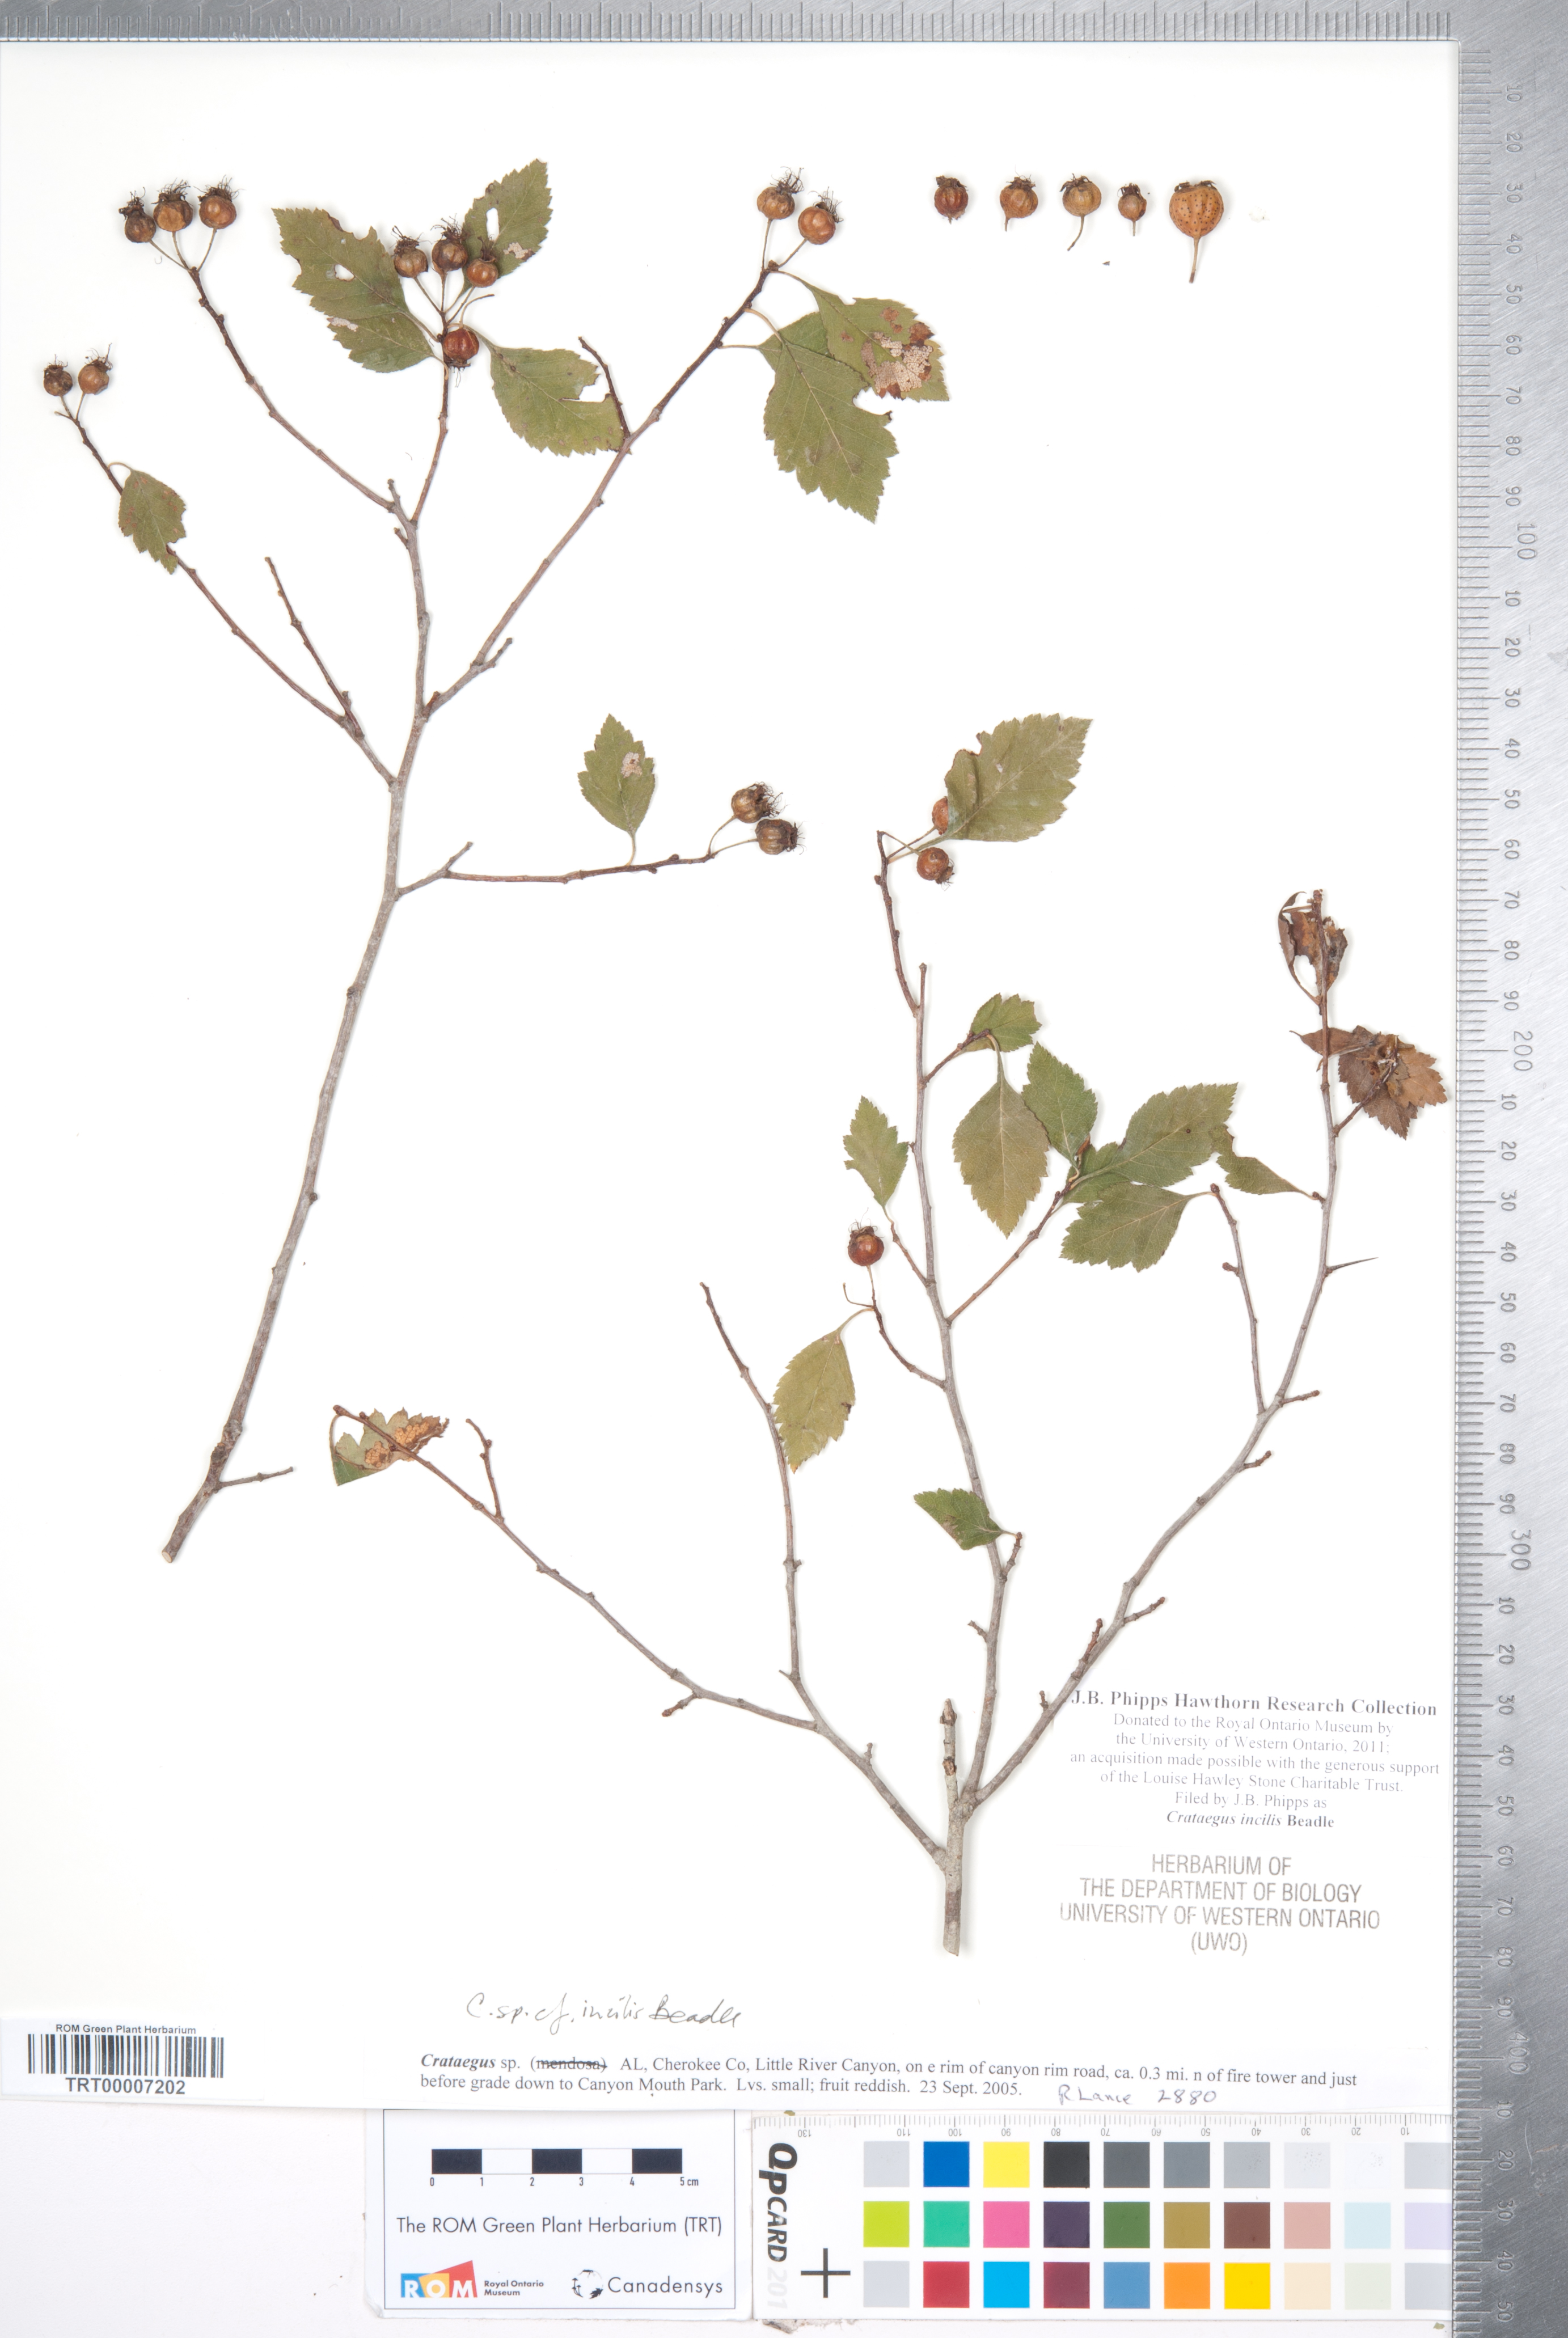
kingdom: Plantae
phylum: Tracheophyta
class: Magnoliopsida
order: Rosales
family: Rosaceae
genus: Crataegus
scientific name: Crataegus pulcherrima
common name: Beautiful hawthorn
